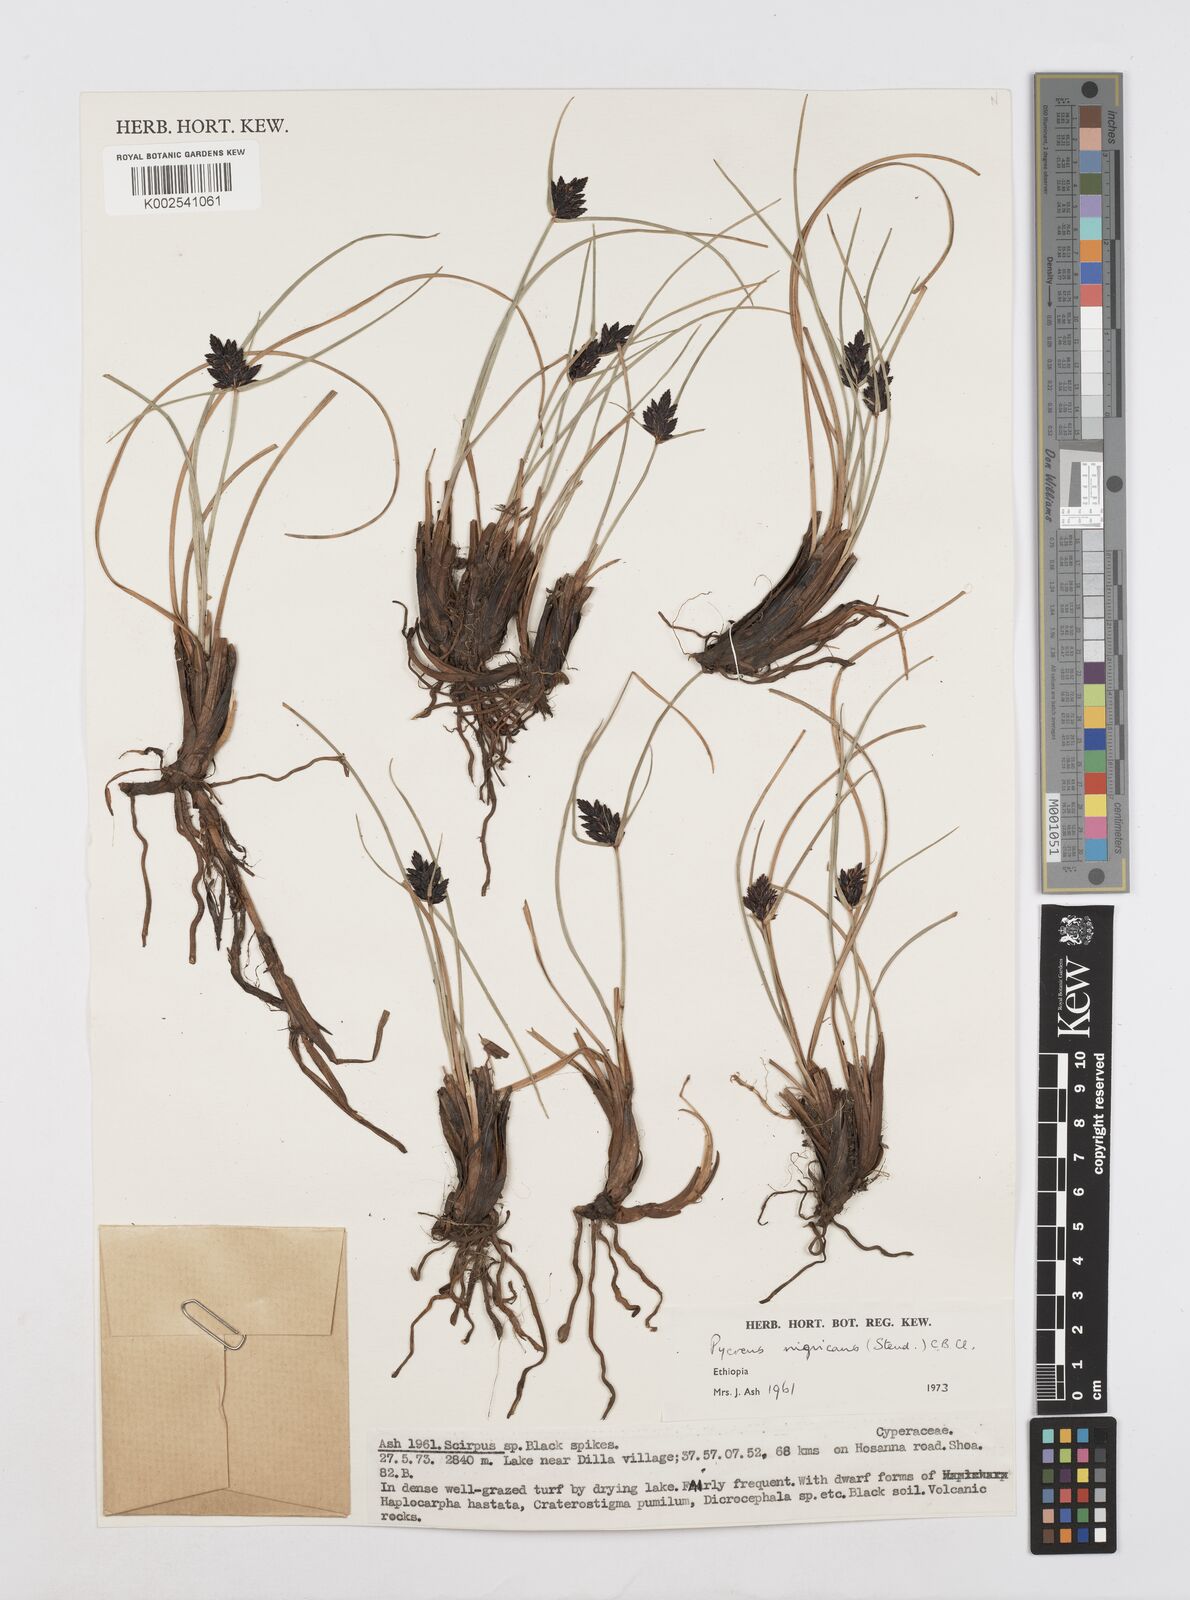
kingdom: Plantae
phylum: Tracheophyta
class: Liliopsida
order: Poales
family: Cyperaceae
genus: Cyperus
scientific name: Cyperus nigricans
